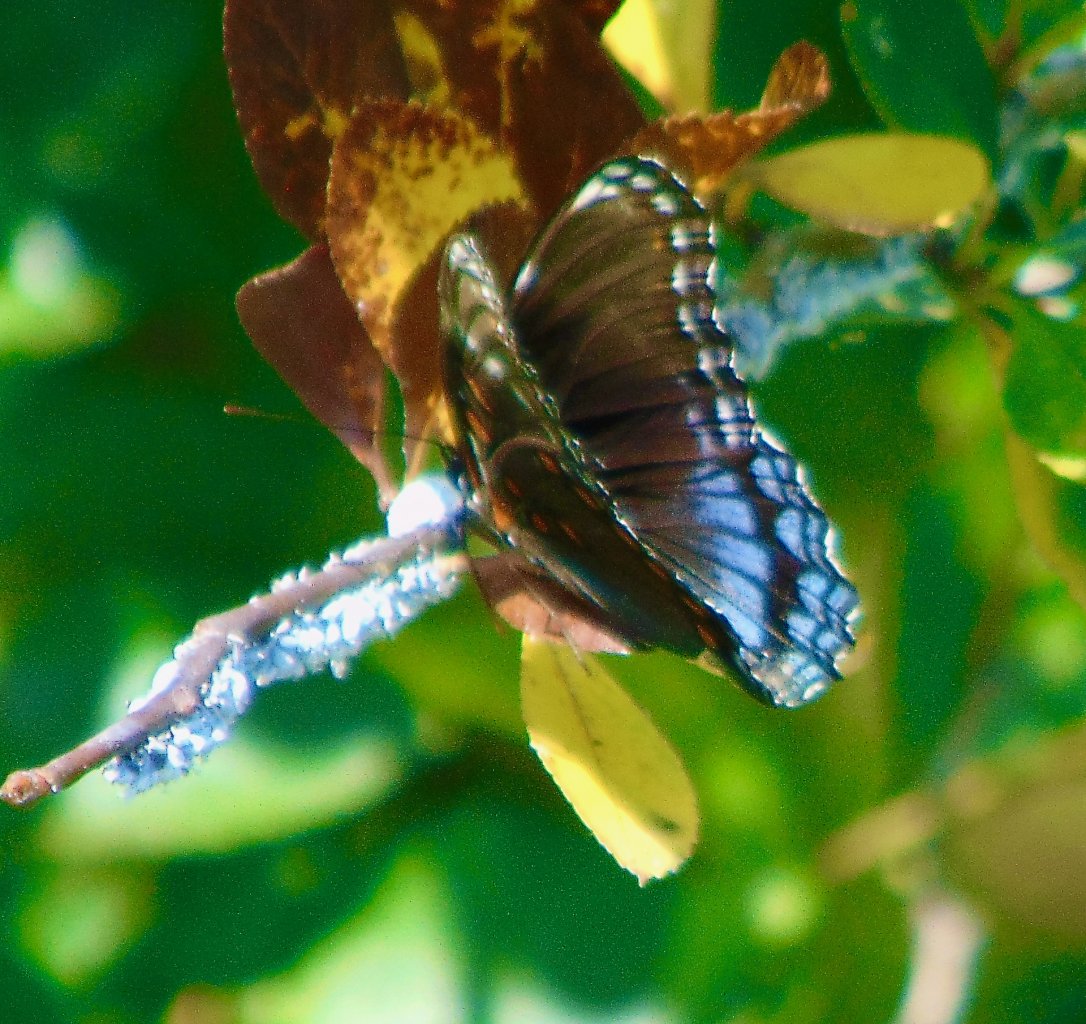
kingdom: Animalia
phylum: Arthropoda
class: Insecta
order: Lepidoptera
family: Nymphalidae
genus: Limenitis
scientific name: Limenitis astyanax
